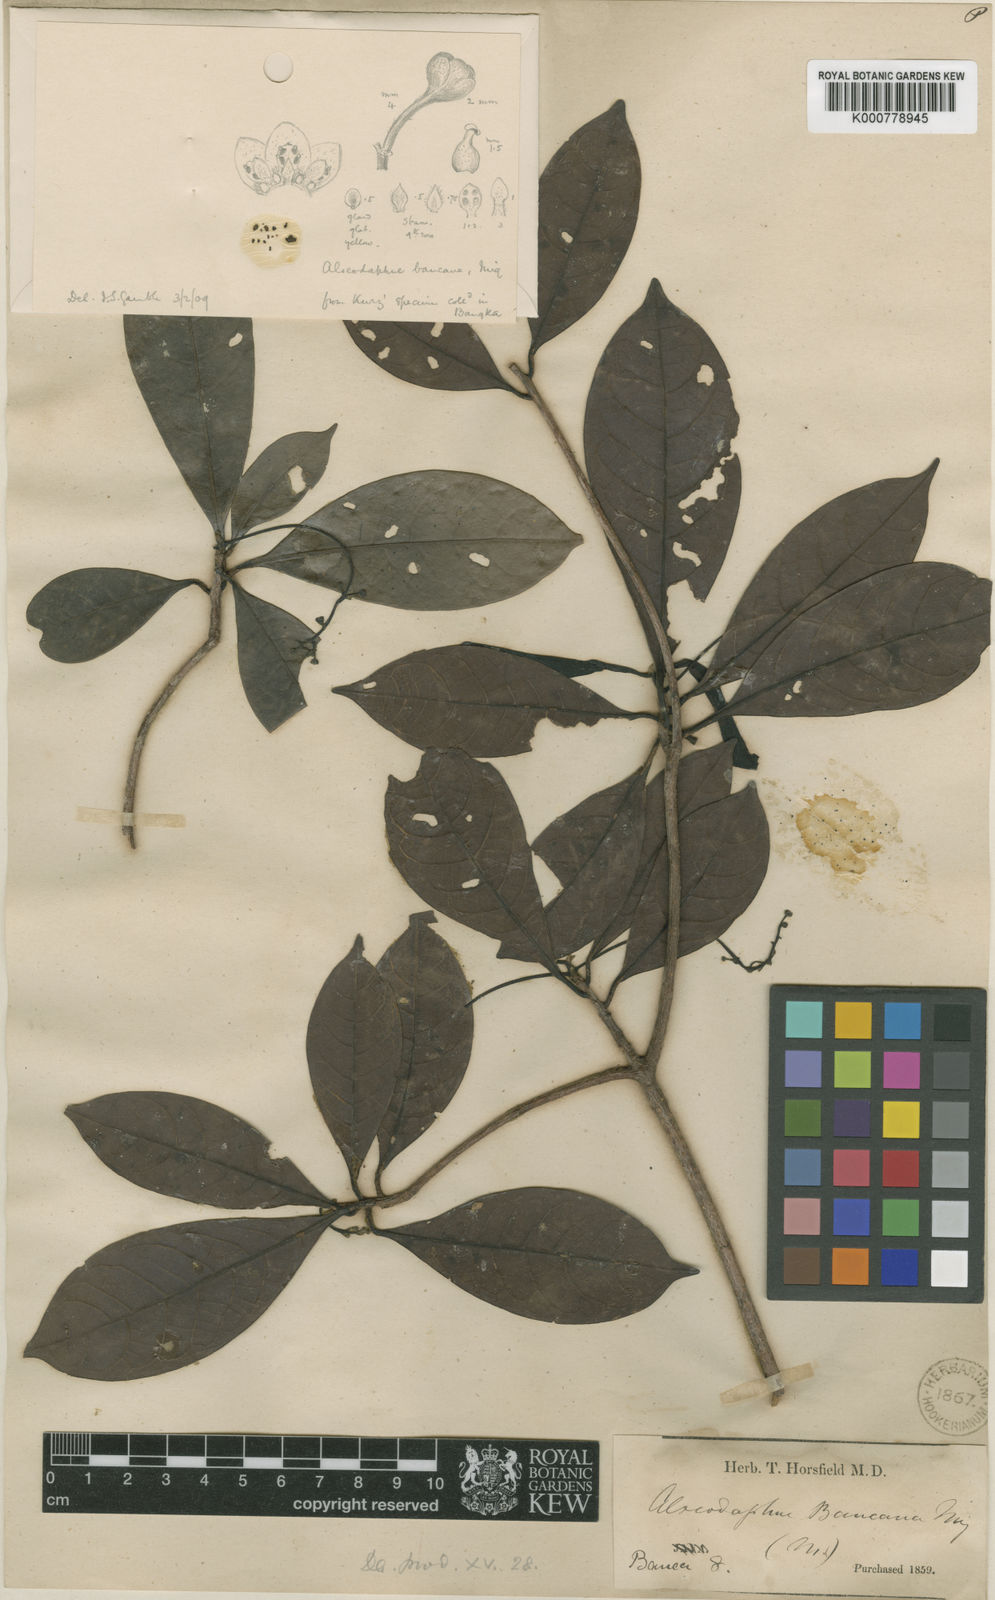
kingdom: Plantae
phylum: Tracheophyta
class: Magnoliopsida
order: Laurales
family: Lauraceae
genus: Alseodaphne
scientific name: Alseodaphne bancana
